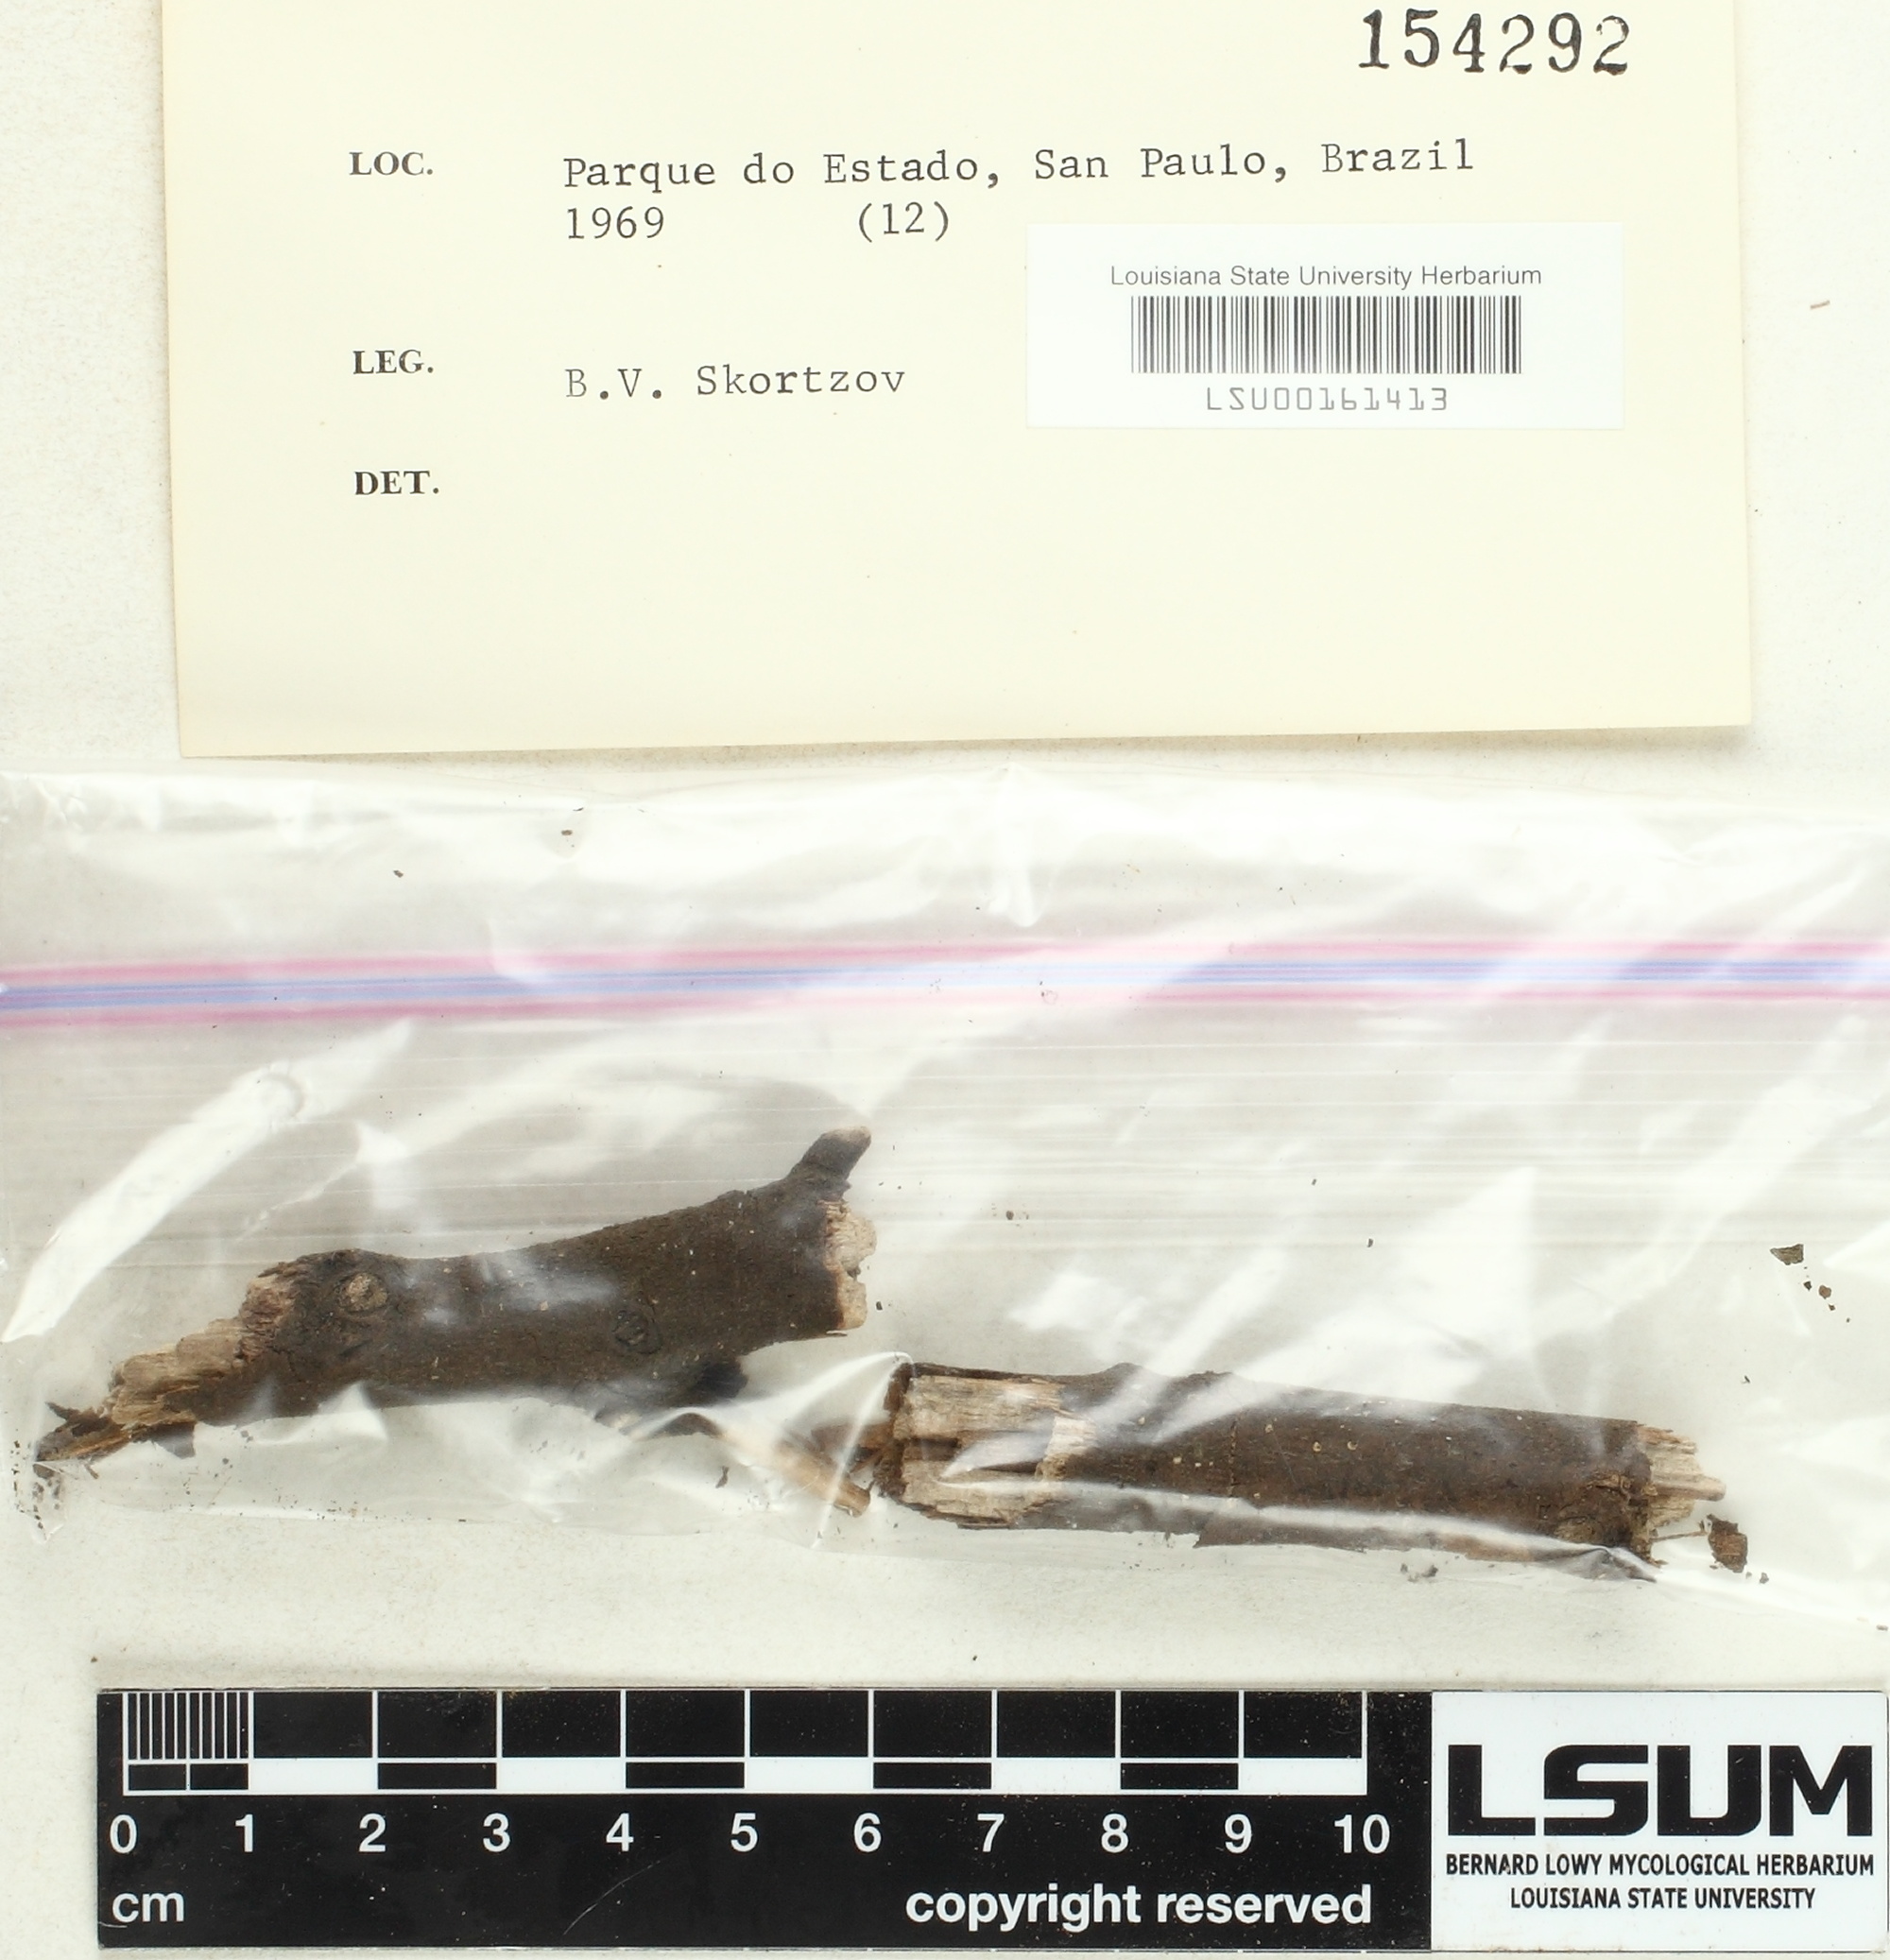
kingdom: Fungi
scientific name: Fungi
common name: Fungi
